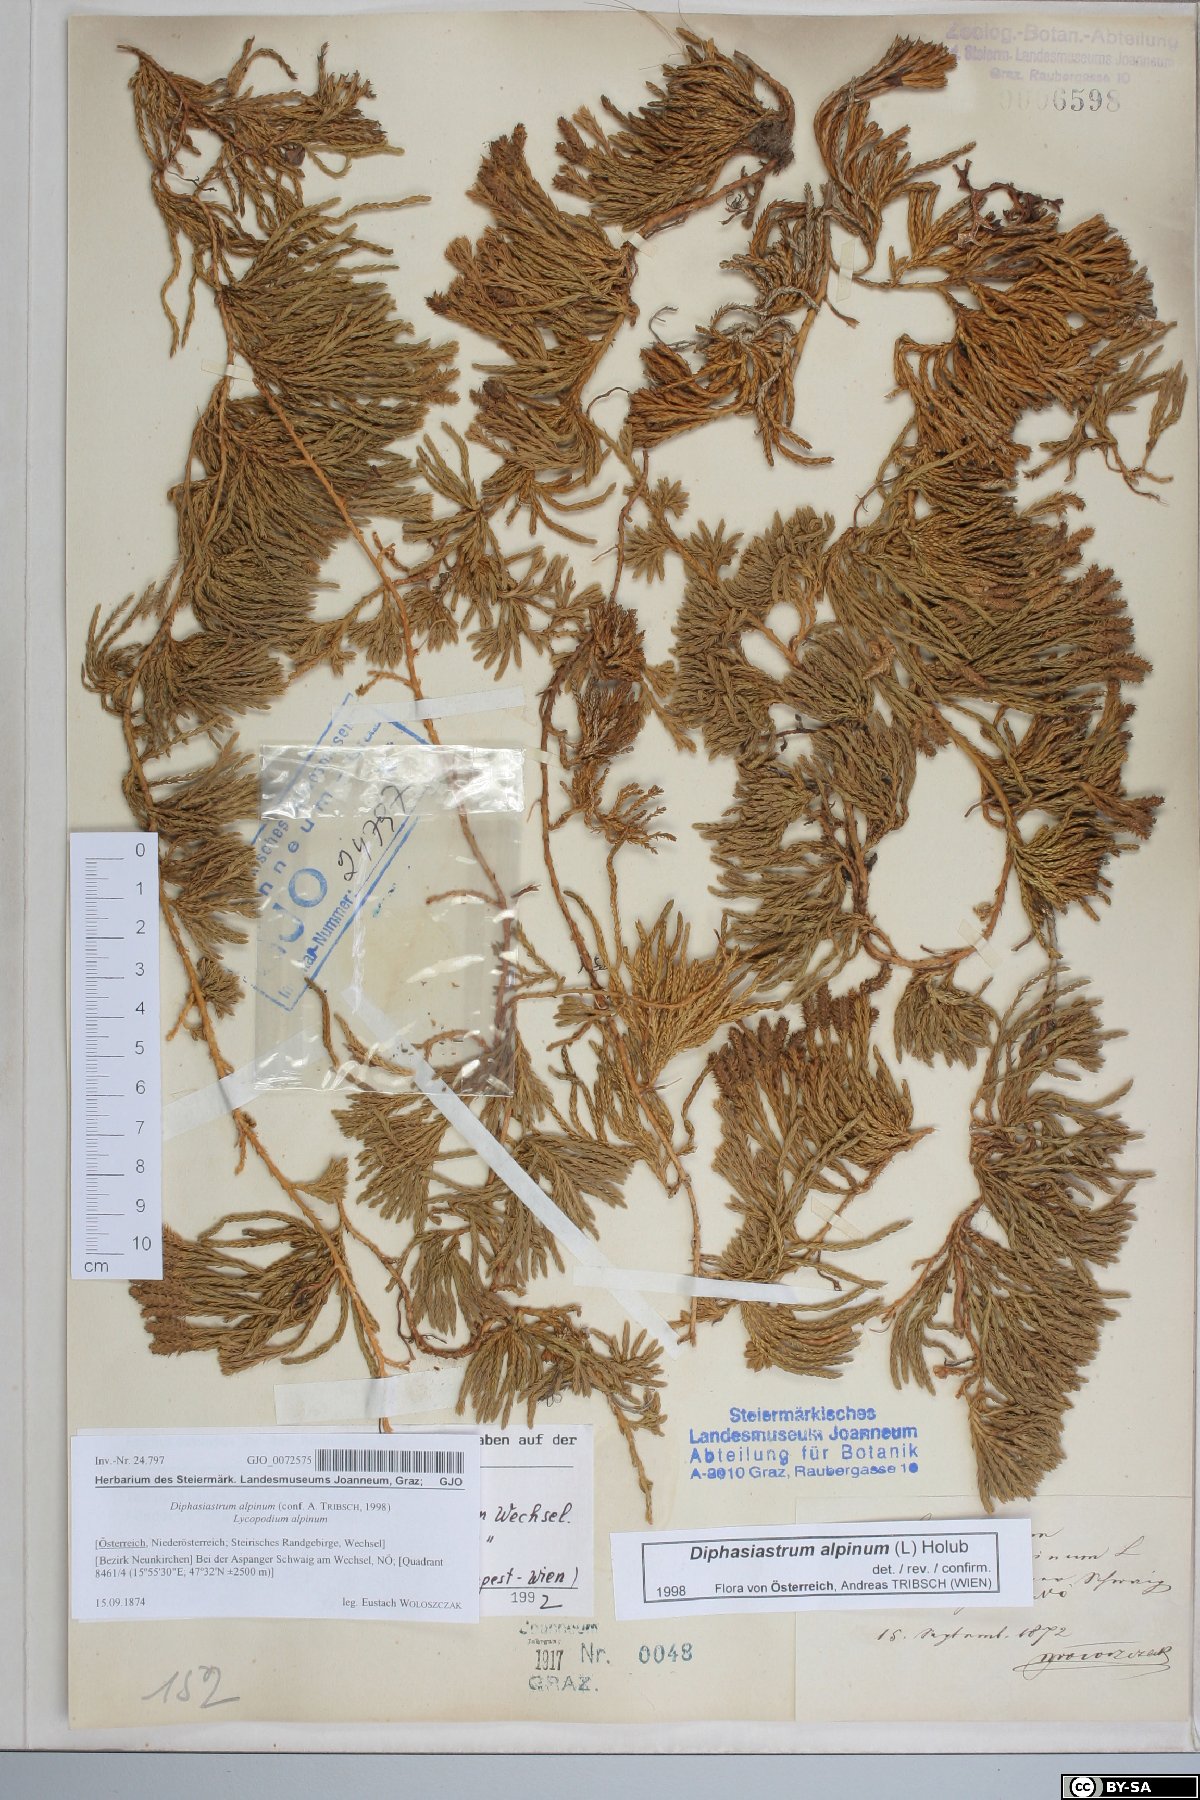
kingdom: Plantae
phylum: Tracheophyta
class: Lycopodiopsida
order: Lycopodiales
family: Lycopodiaceae
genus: Diphasiastrum
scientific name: Diphasiastrum alpinum
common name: Alpine clubmoss
